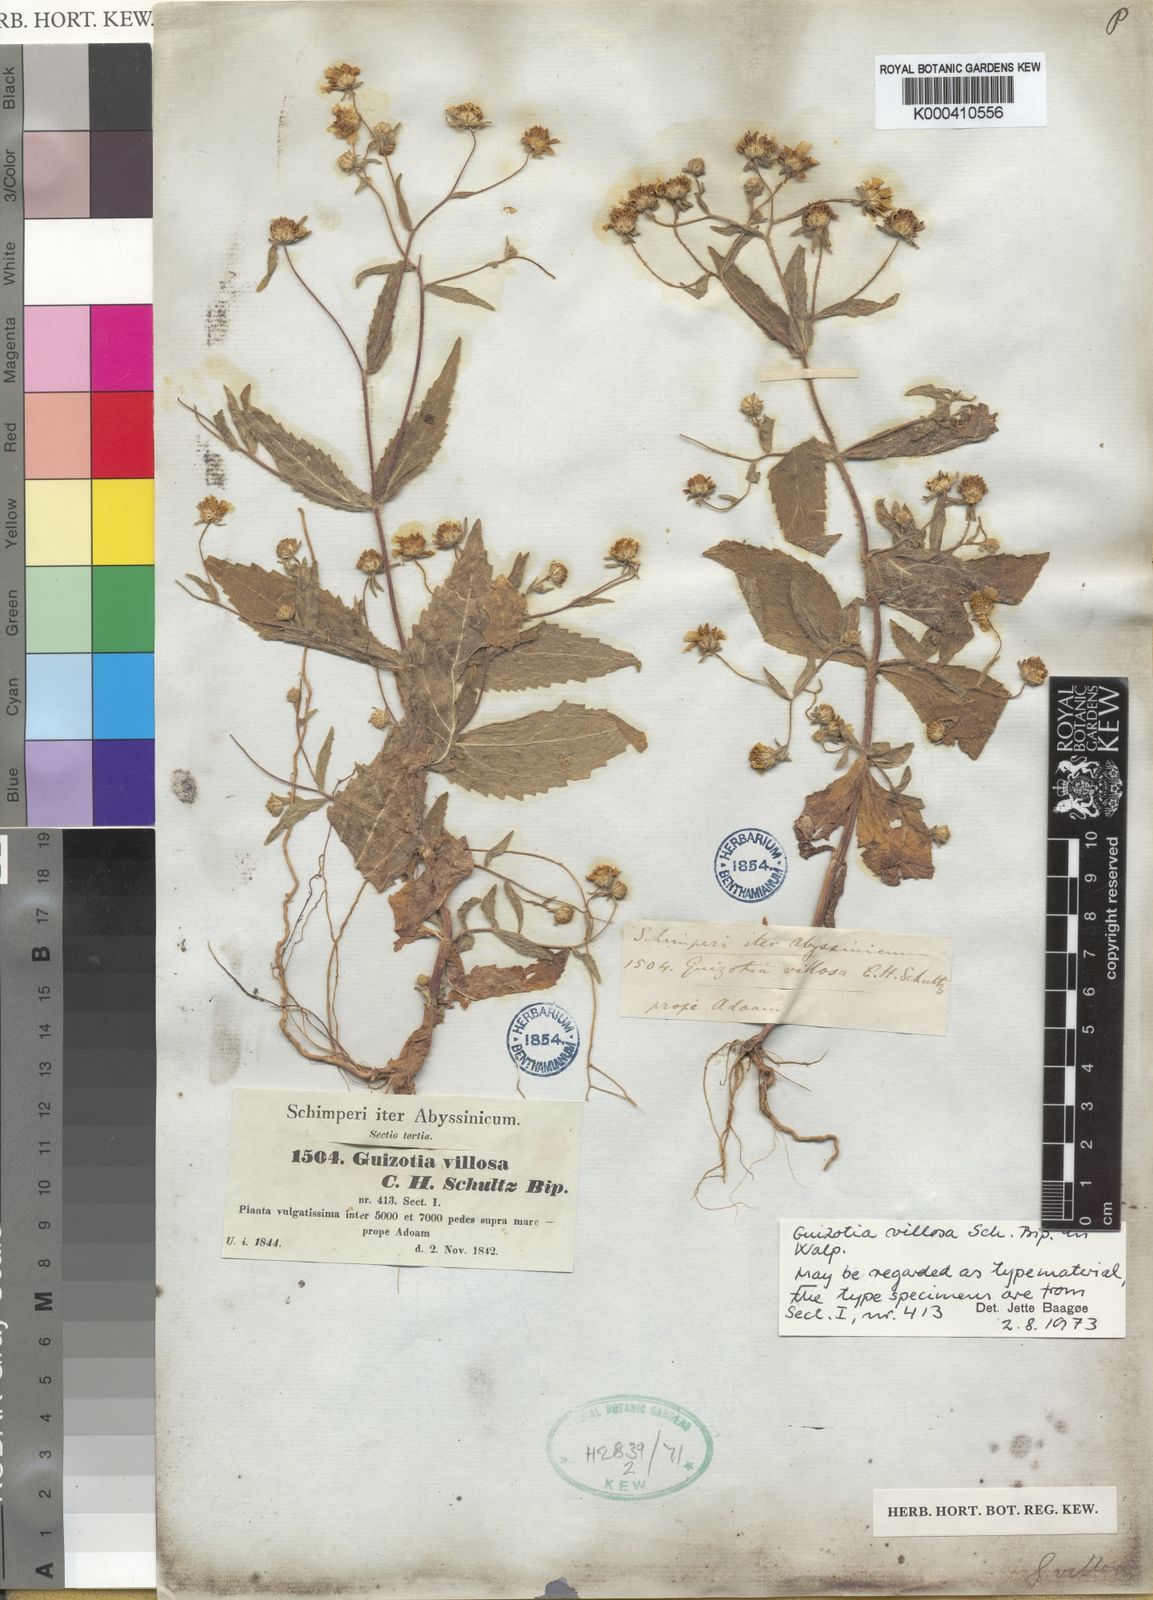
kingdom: Plantae
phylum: Tracheophyta
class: Magnoliopsida
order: Asterales
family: Asteraceae
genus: Guizotia
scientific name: Guizotia
